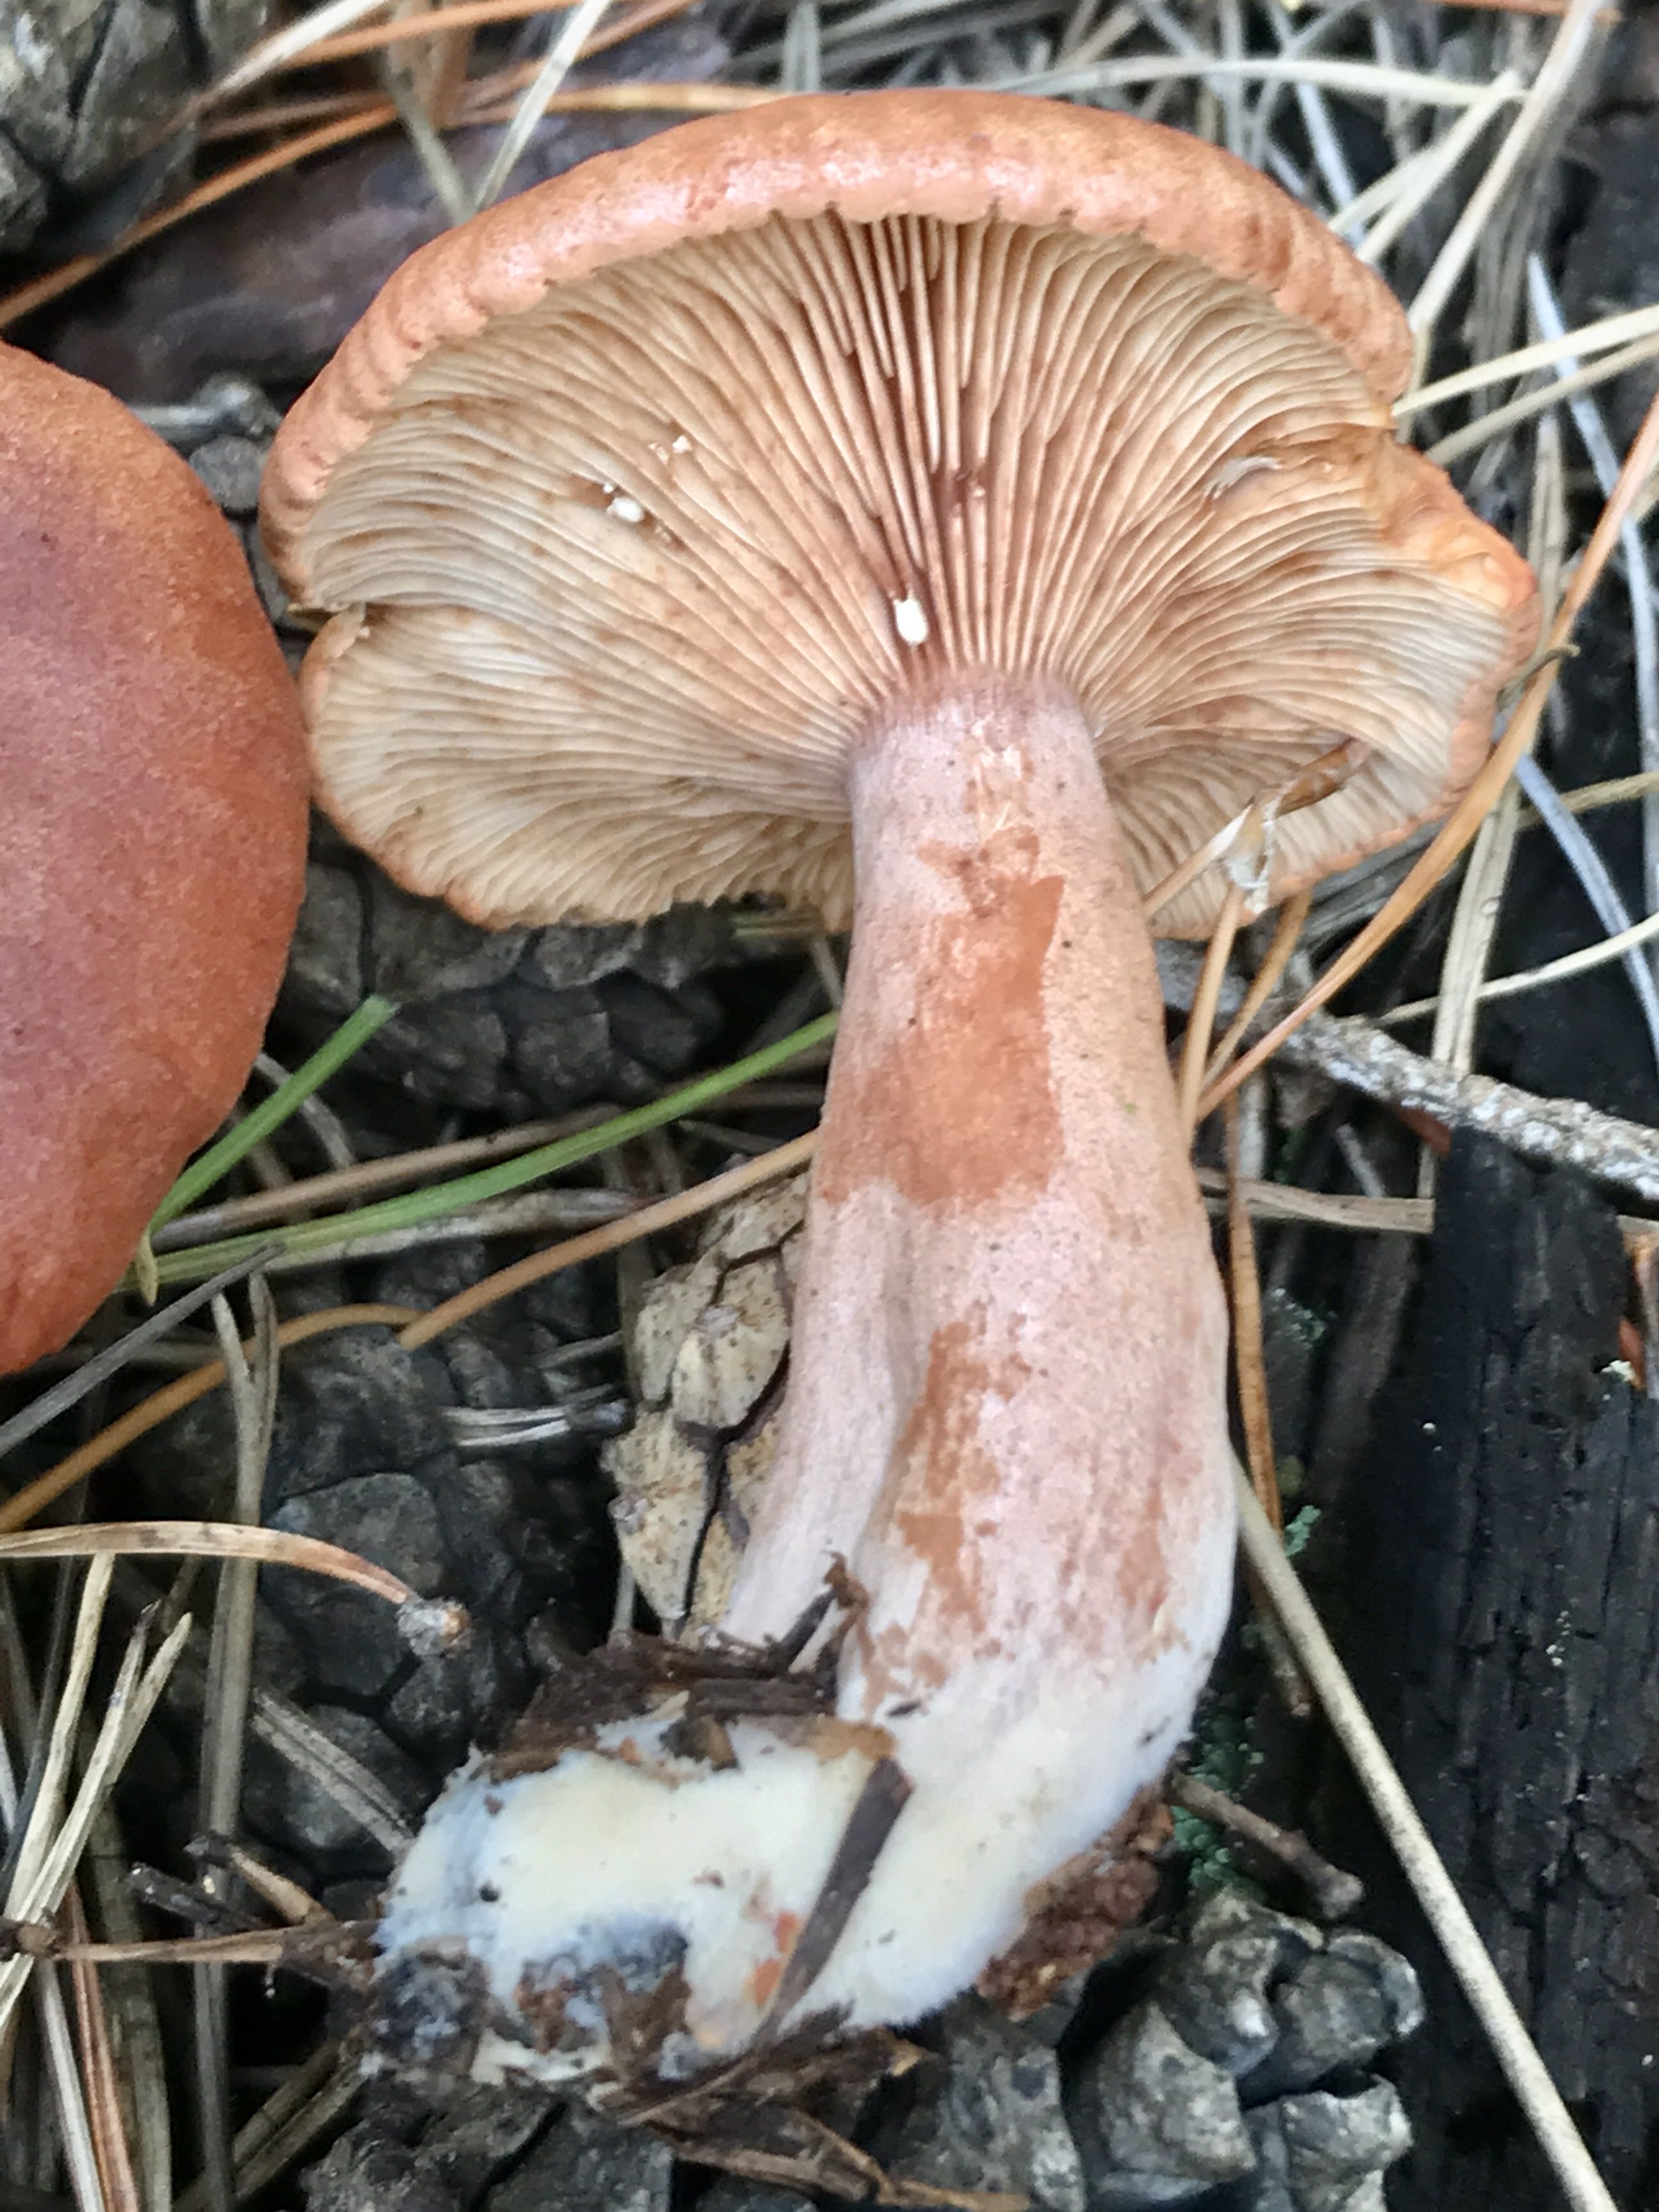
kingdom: Fungi
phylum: Basidiomycota
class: Agaricomycetes
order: Russulales
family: Russulaceae
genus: Lactarius
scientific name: Lactarius rufus
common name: rødbrun mælkehat
